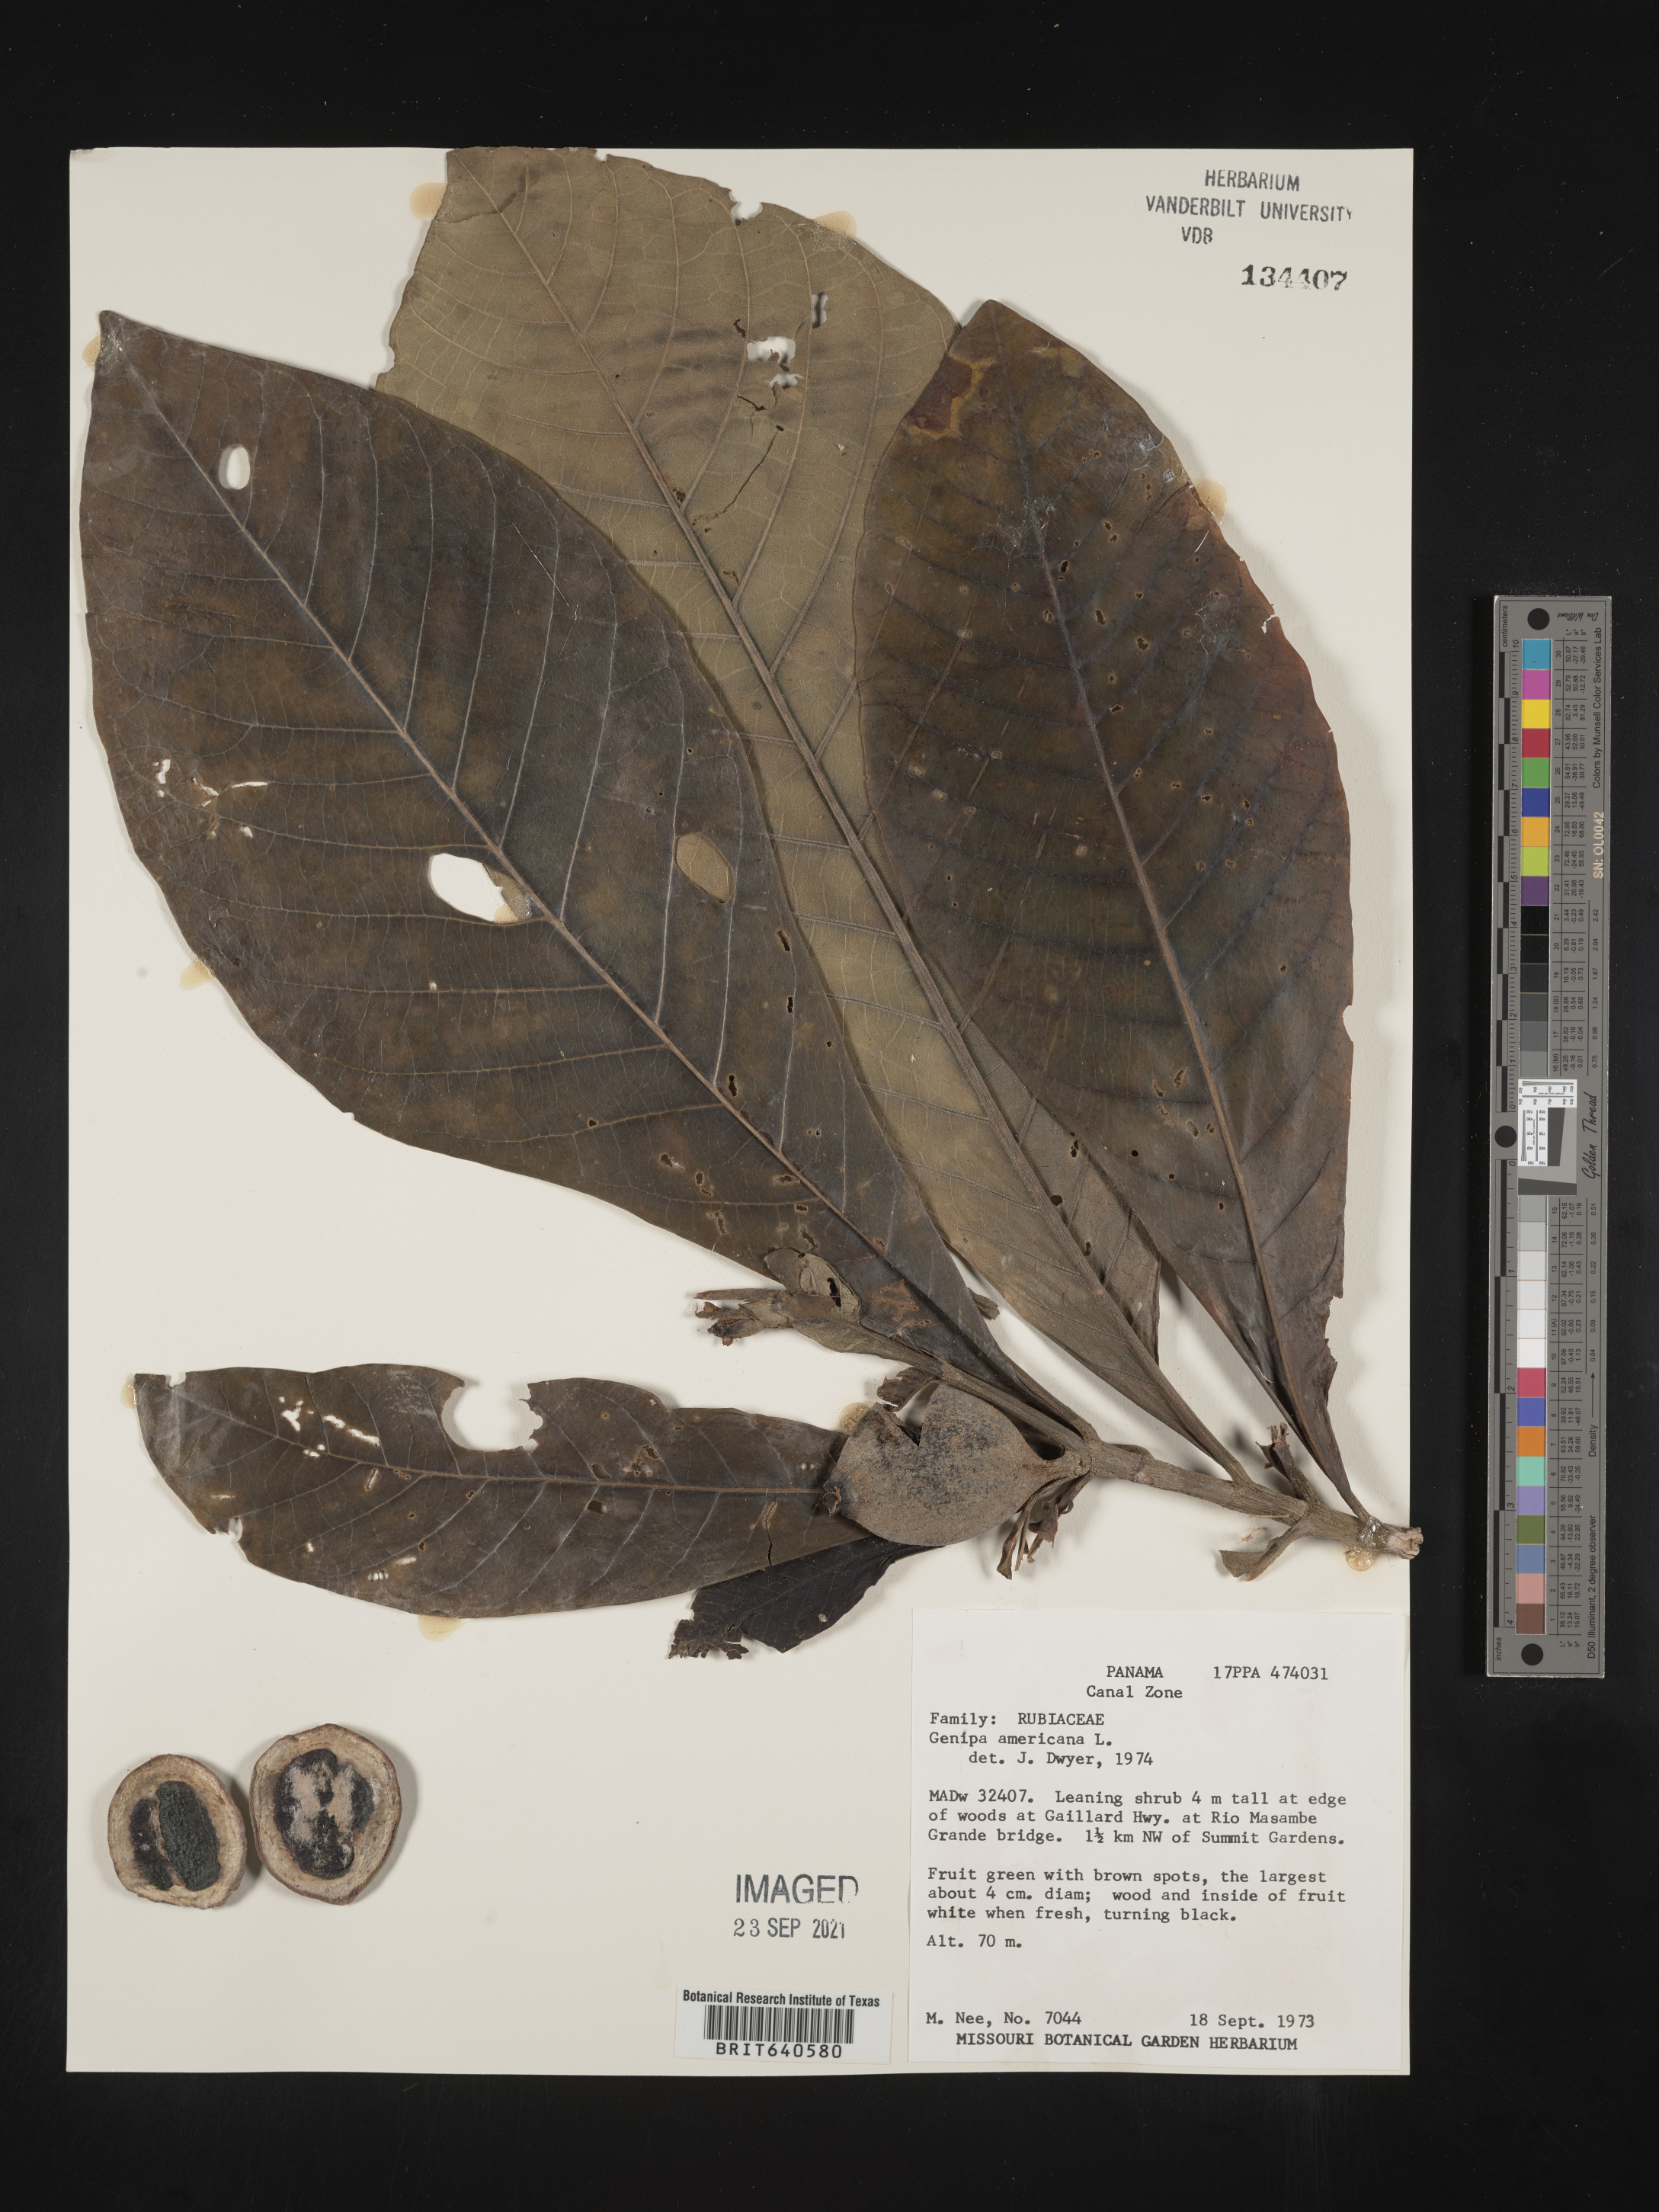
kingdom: Plantae
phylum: Tracheophyta
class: Magnoliopsida
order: Gentianales
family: Rubiaceae
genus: Genipa
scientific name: Genipa
